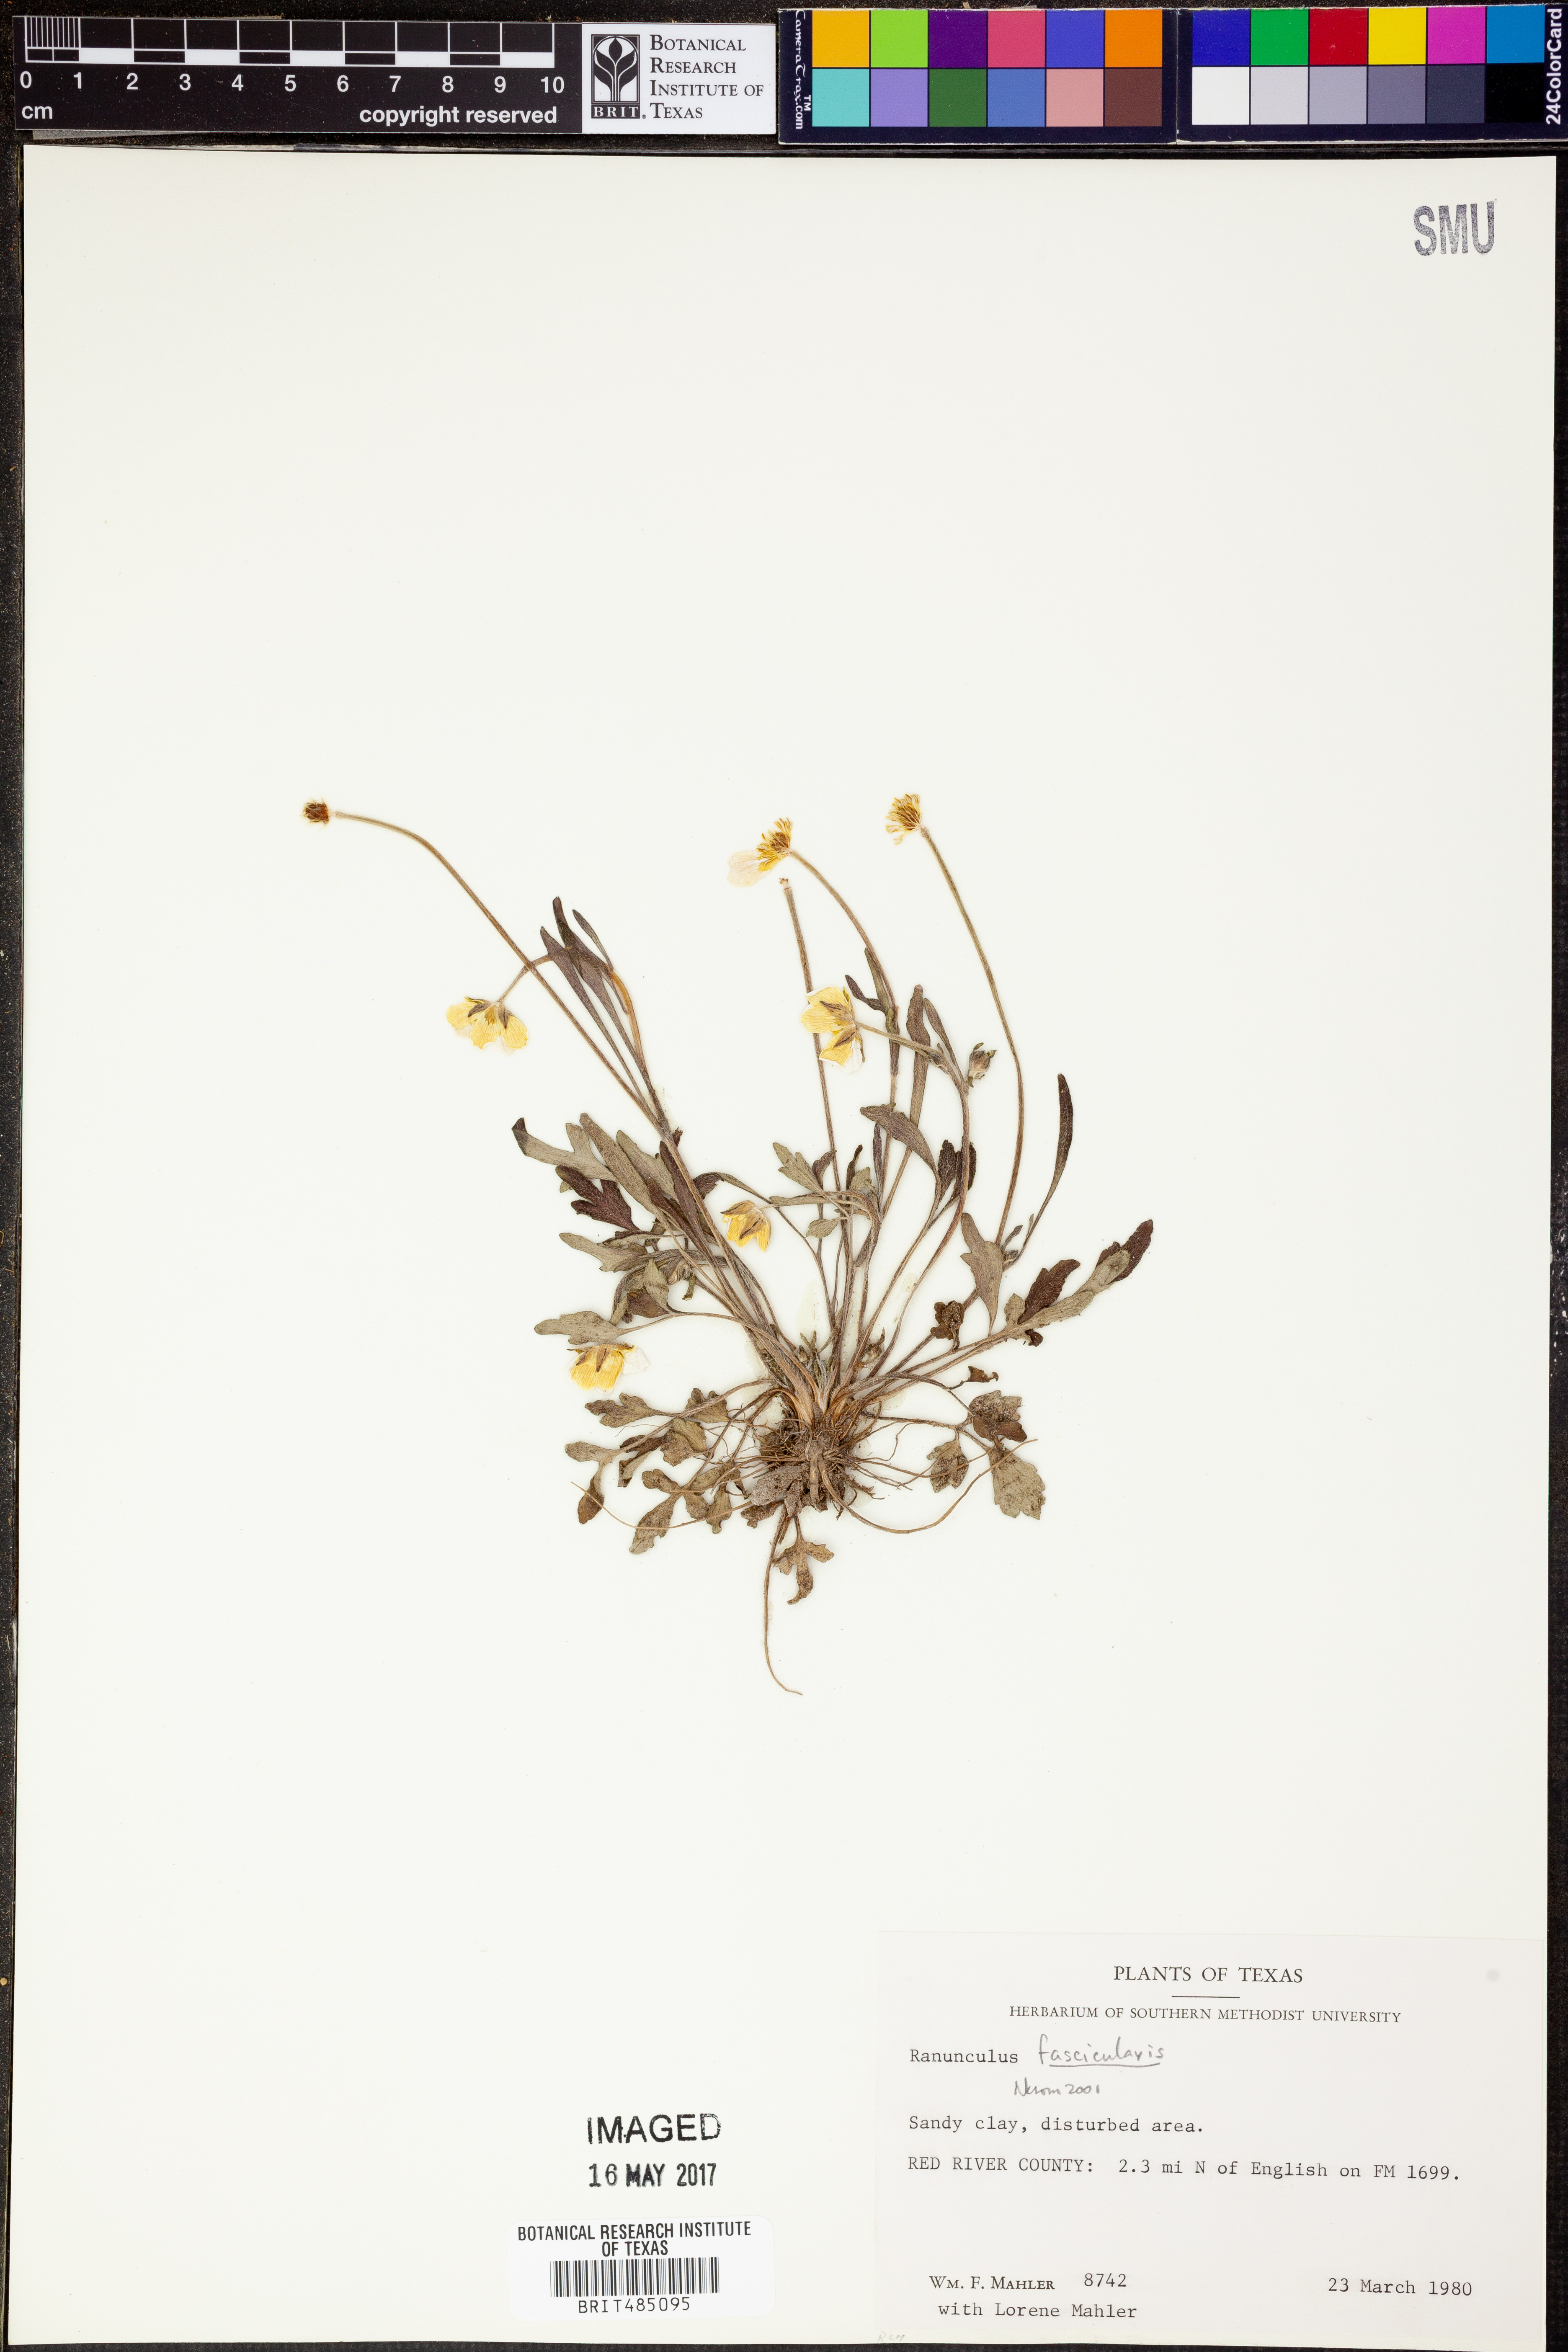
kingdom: Plantae
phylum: Tracheophyta
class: Magnoliopsida
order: Ranunculales
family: Ranunculaceae
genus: Ranunculus
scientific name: Ranunculus fascicularis
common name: Early buttercup
